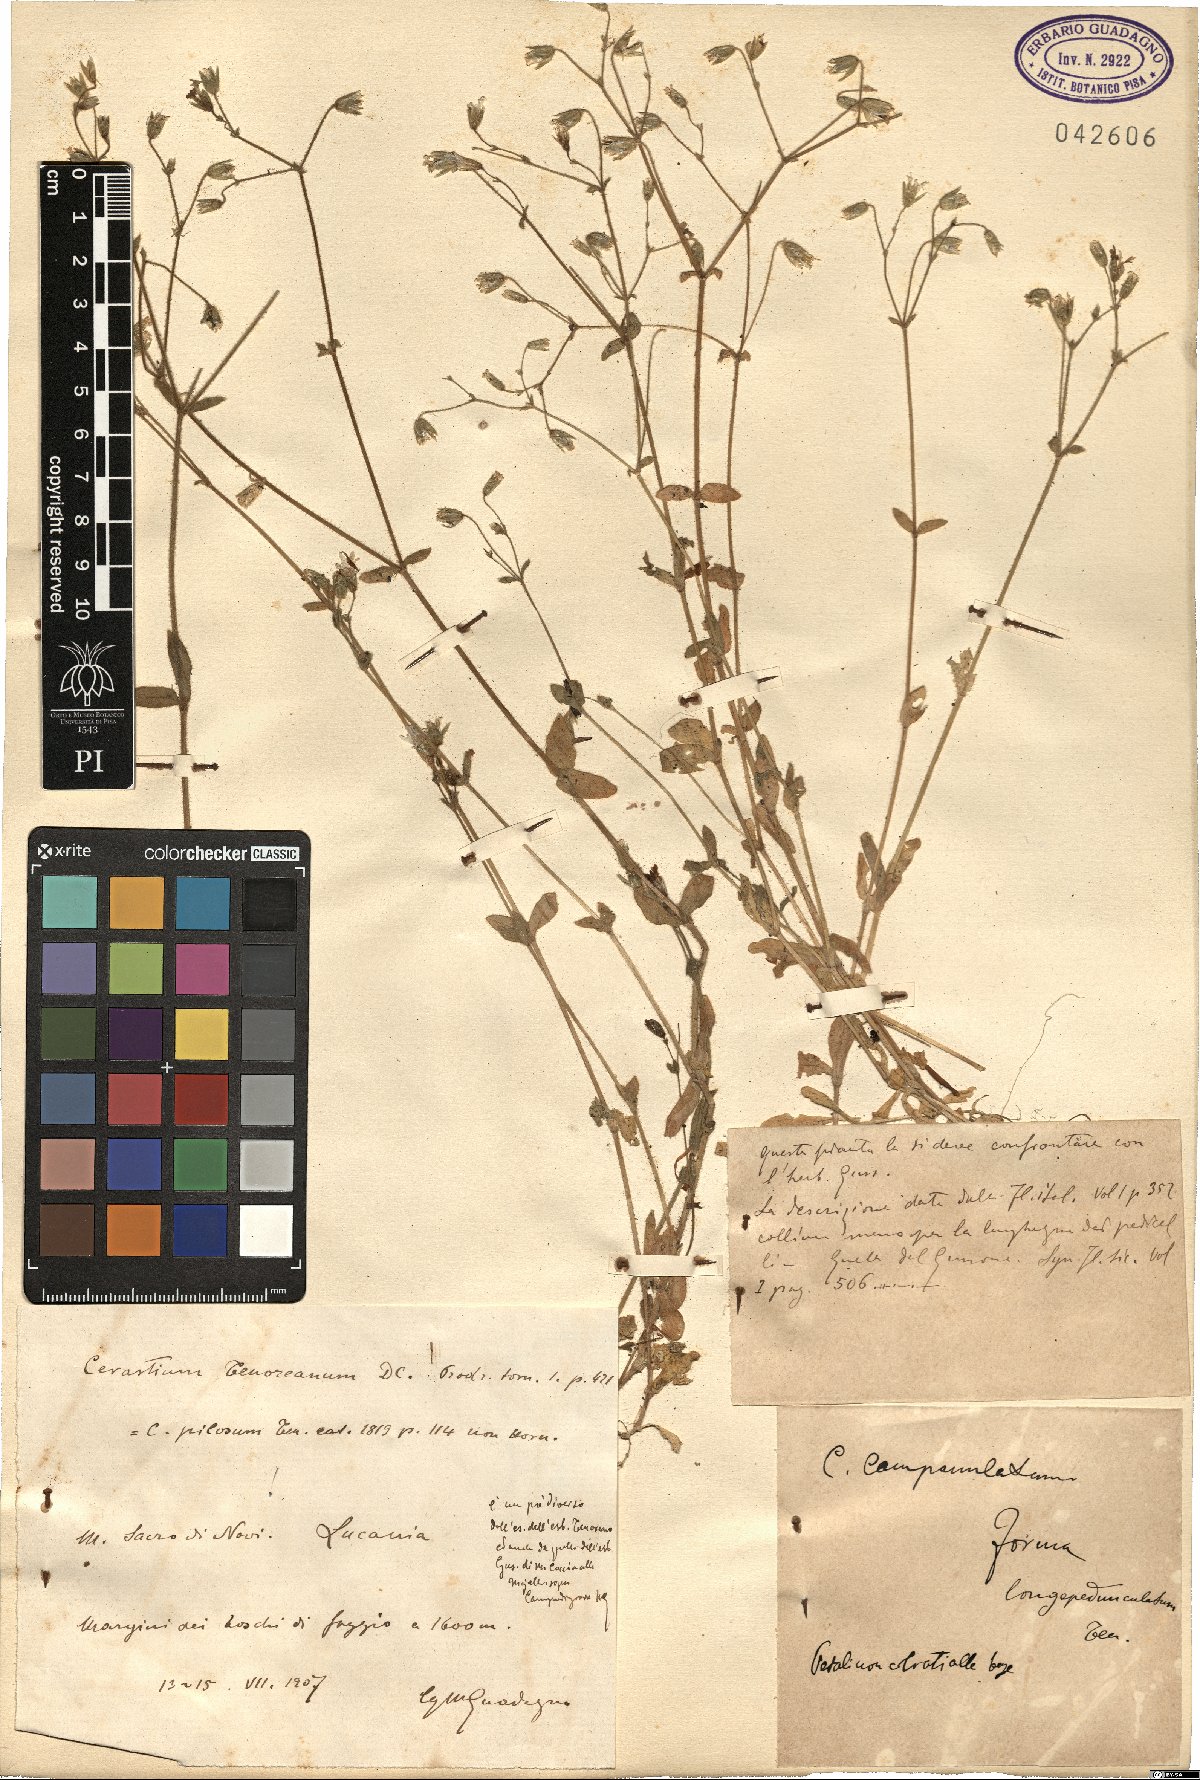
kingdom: Plantae
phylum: Tracheophyta
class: Magnoliopsida
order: Caryophyllales
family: Caryophyllaceae
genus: Cerastium
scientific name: Cerastium tenoreanum
